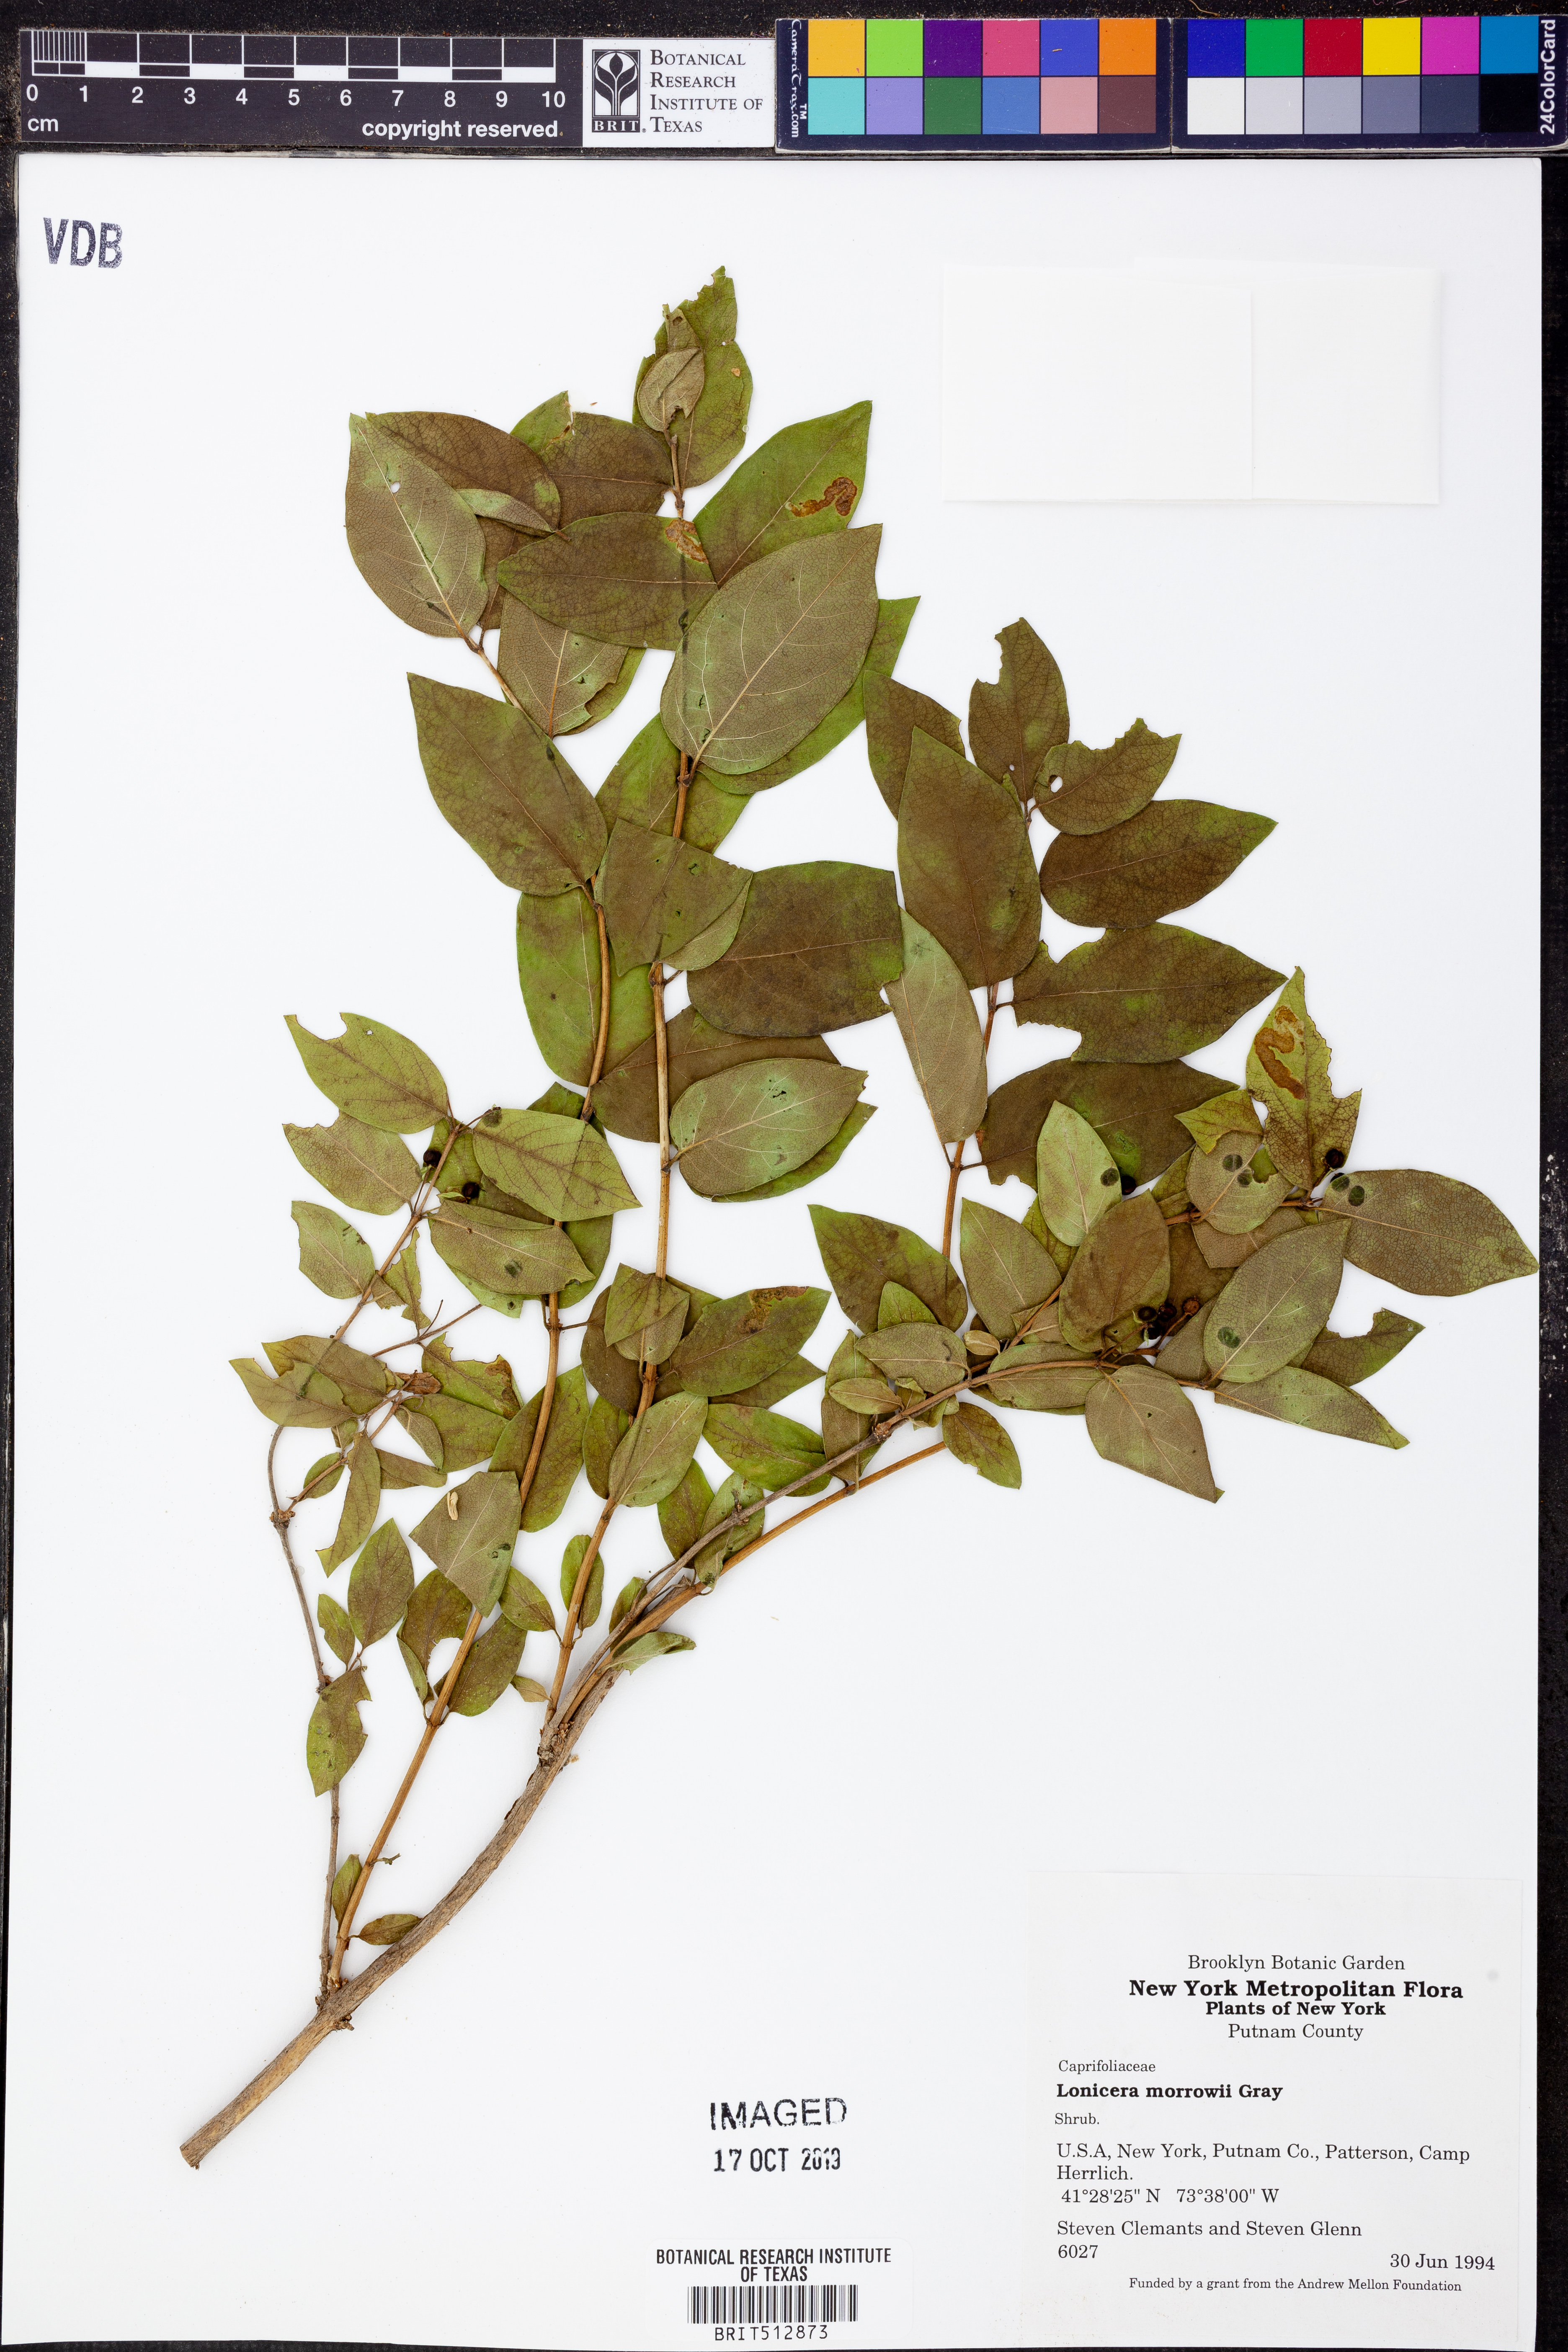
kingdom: Plantae
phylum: Tracheophyta
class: Magnoliopsida
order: Dipsacales
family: Caprifoliaceae
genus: Lonicera
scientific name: Lonicera morrowii
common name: Morrow's honeysuckle
